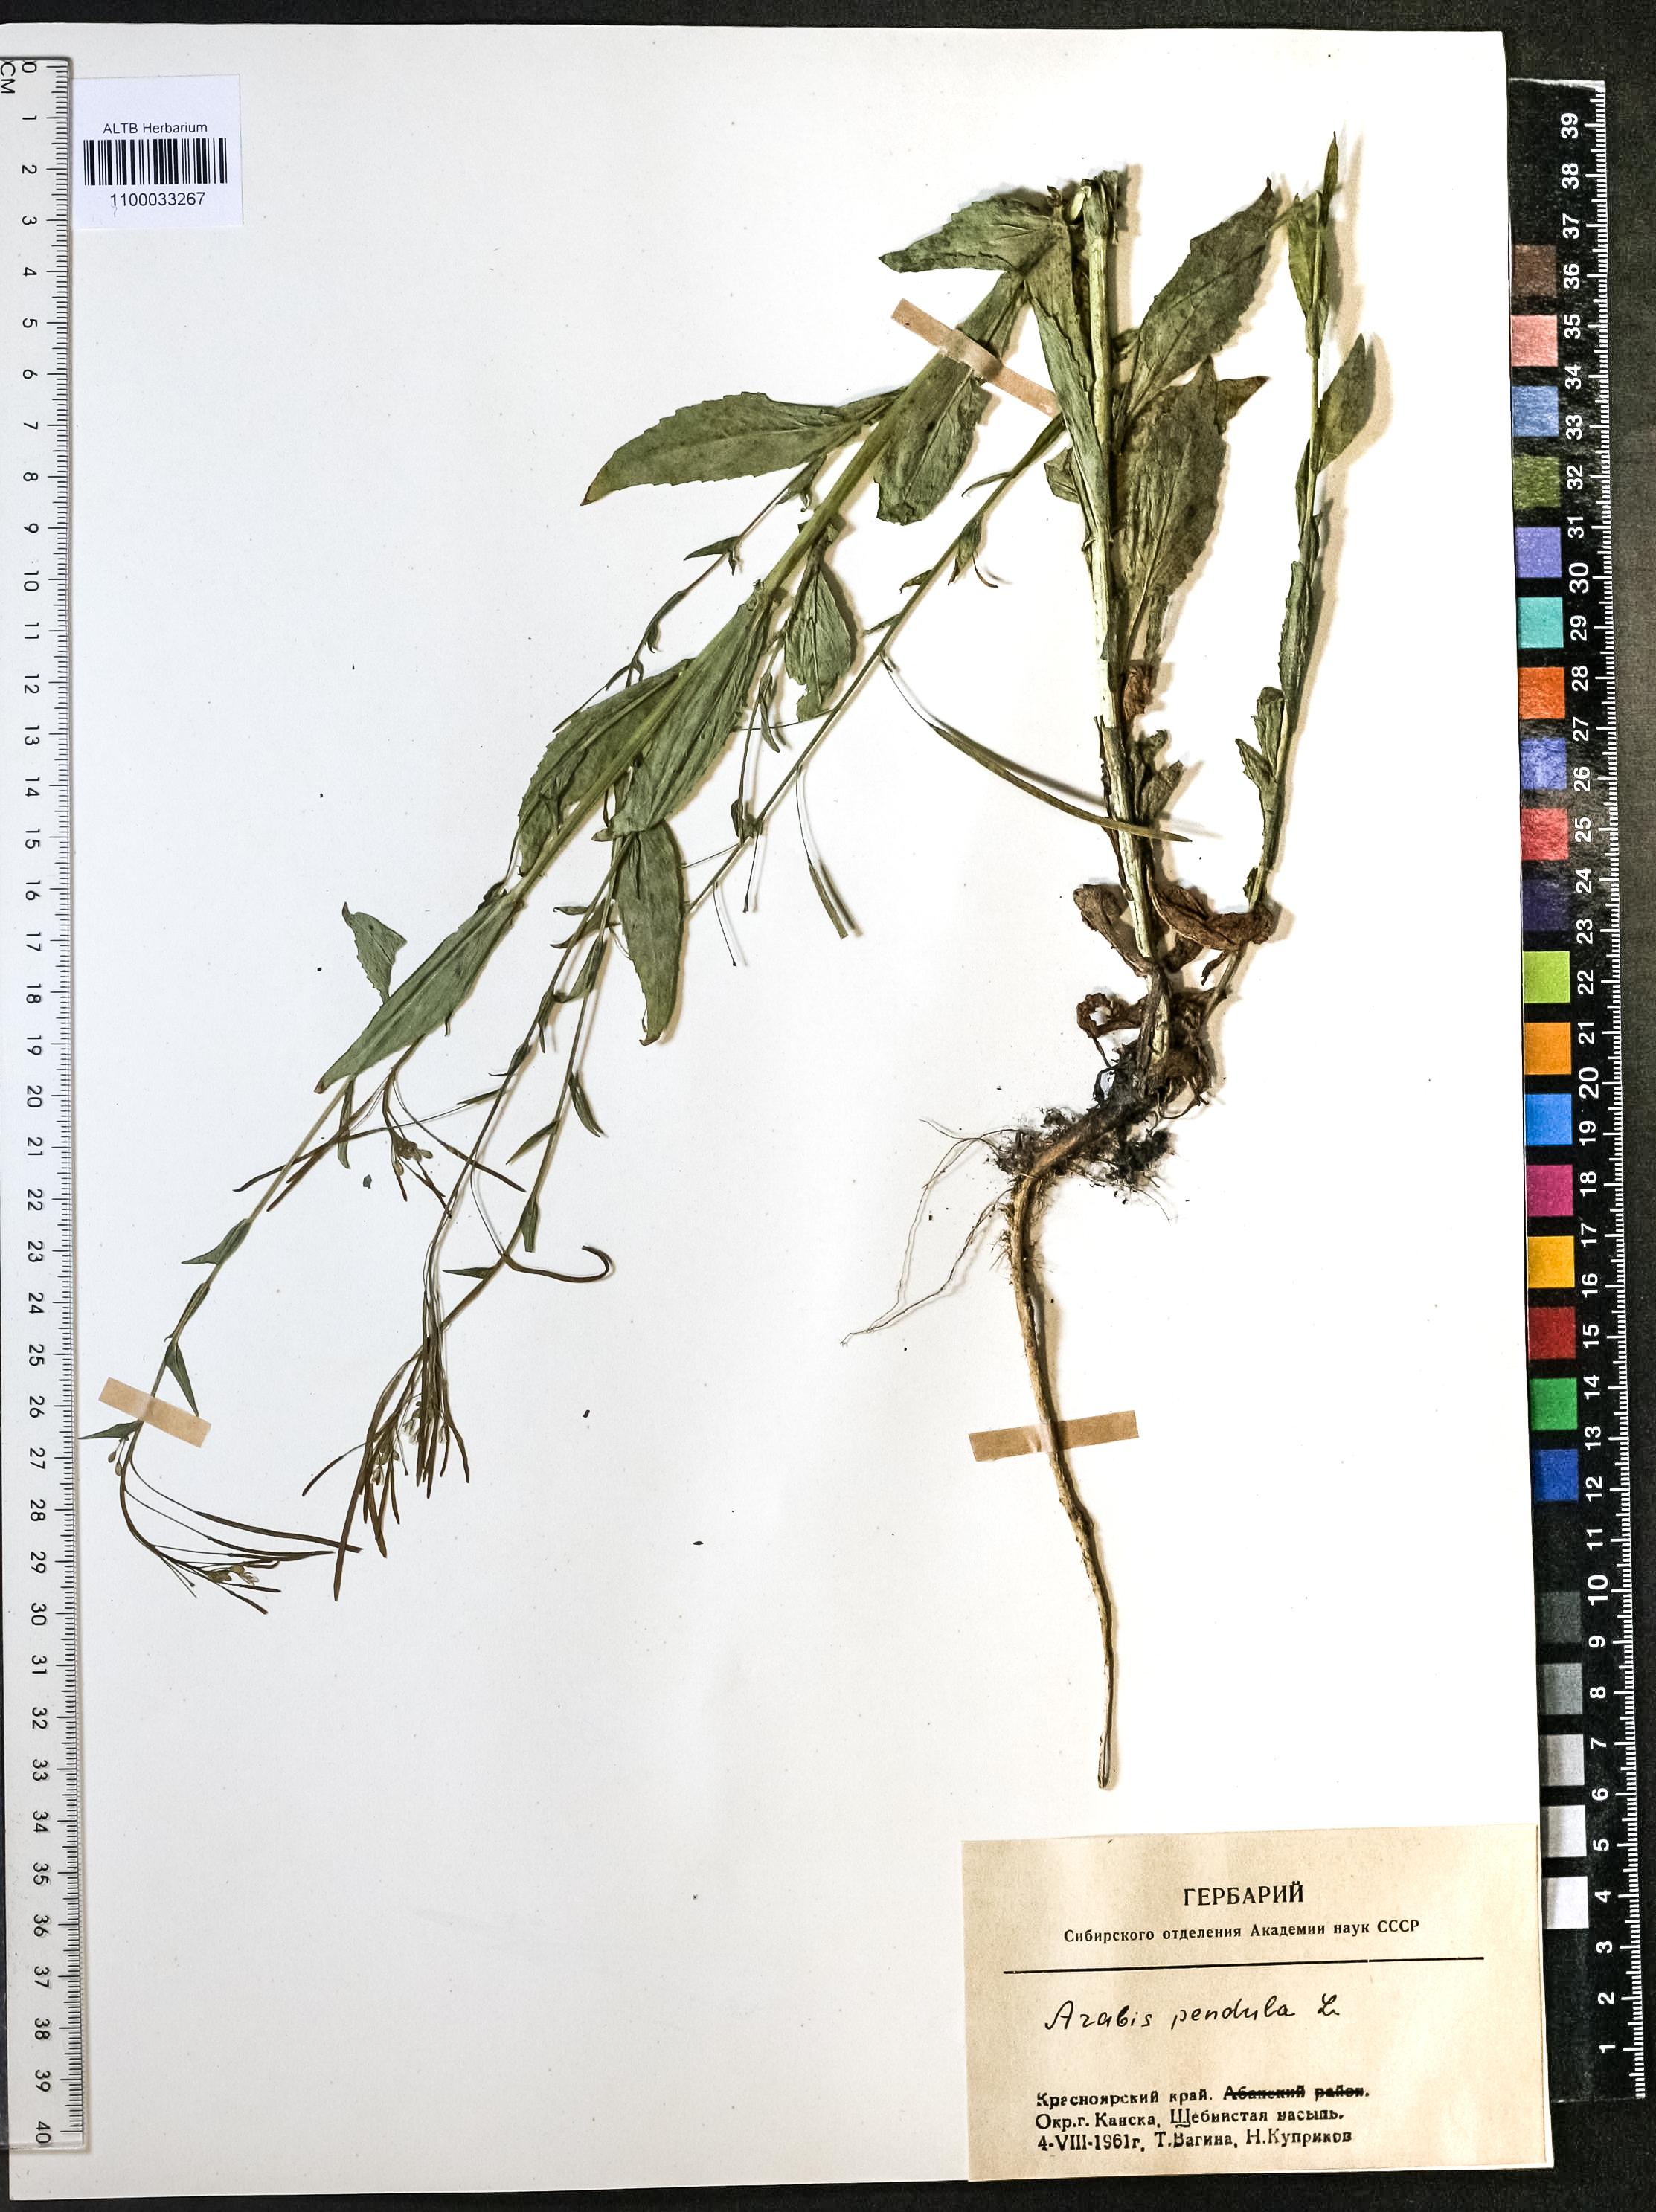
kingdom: Plantae
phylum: Tracheophyta
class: Magnoliopsida
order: Brassicales
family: Brassicaceae
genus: Catolobus
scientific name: Catolobus pendulus
